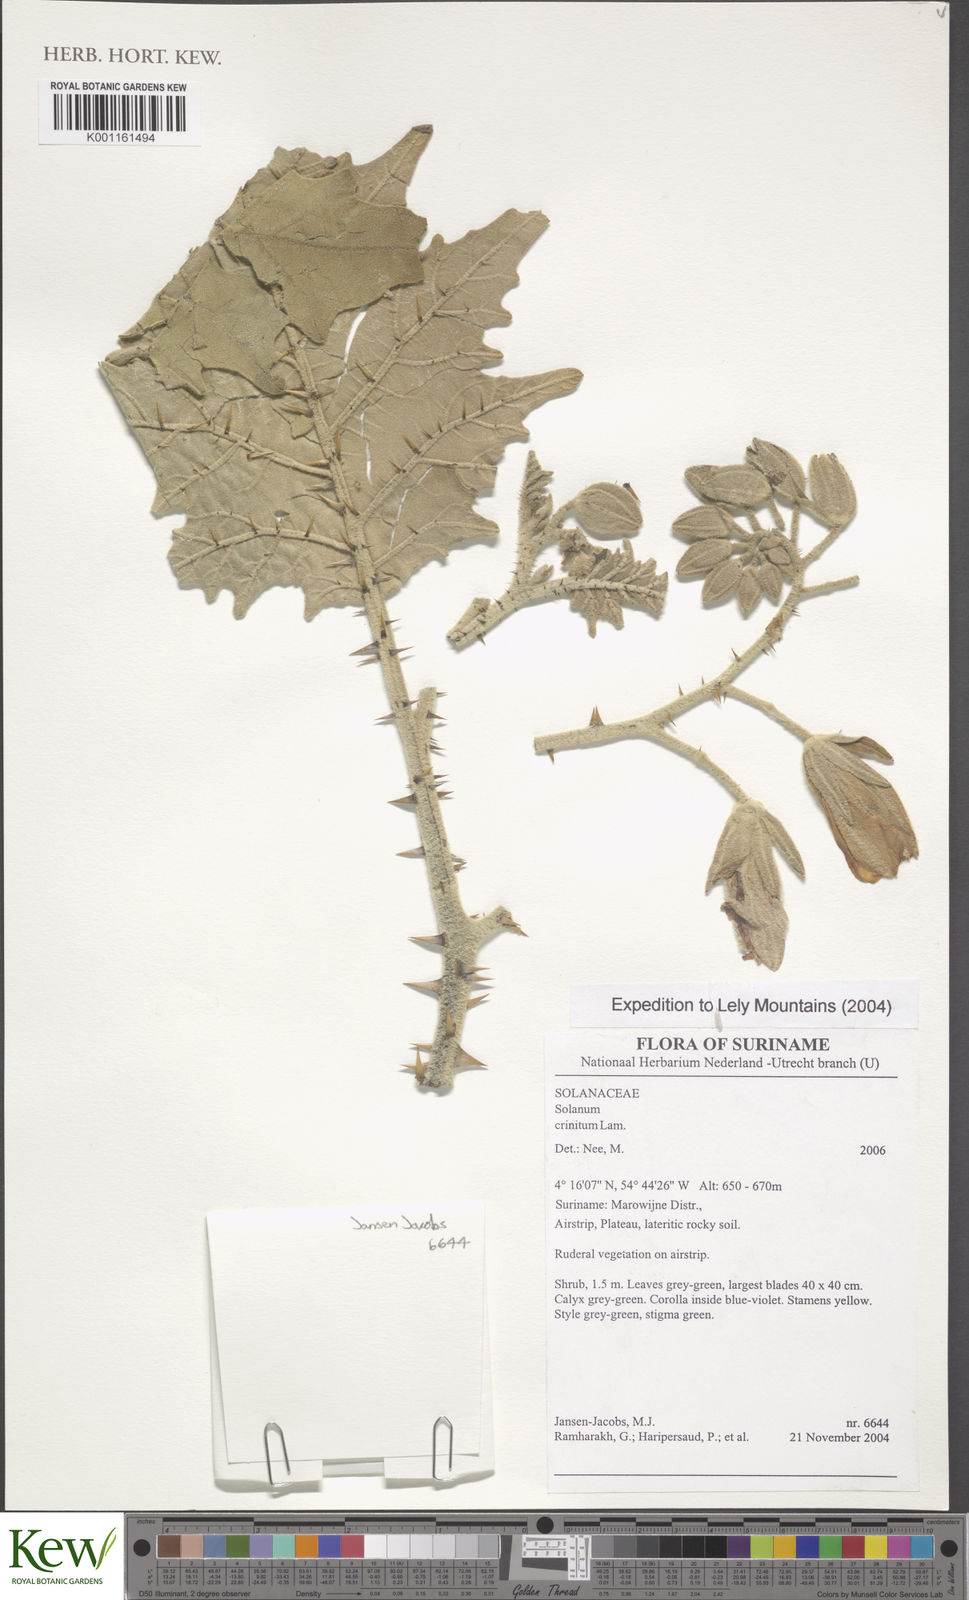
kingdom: Plantae
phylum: Tracheophyta
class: Magnoliopsida
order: Solanales
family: Solanaceae
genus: Solanum
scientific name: Solanum crinitum
